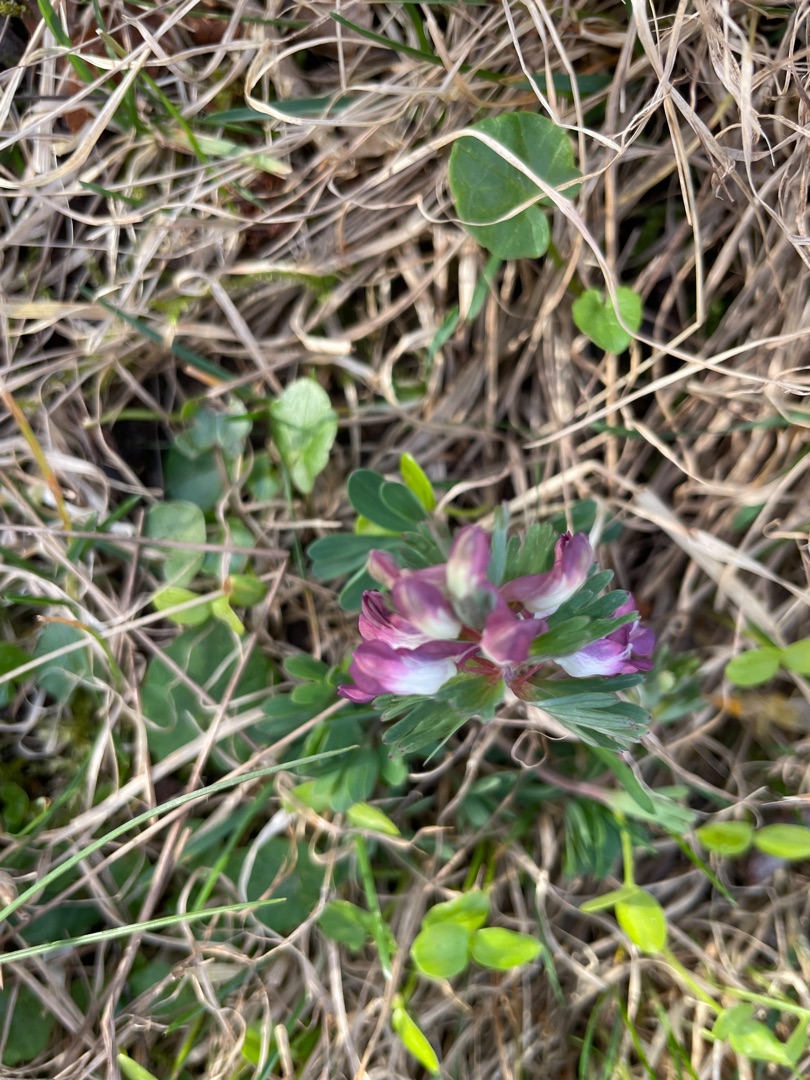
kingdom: Plantae
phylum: Tracheophyta
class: Magnoliopsida
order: Ranunculales
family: Papaveraceae
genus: Corydalis
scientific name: Corydalis solida
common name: Langstilket lærkespore
